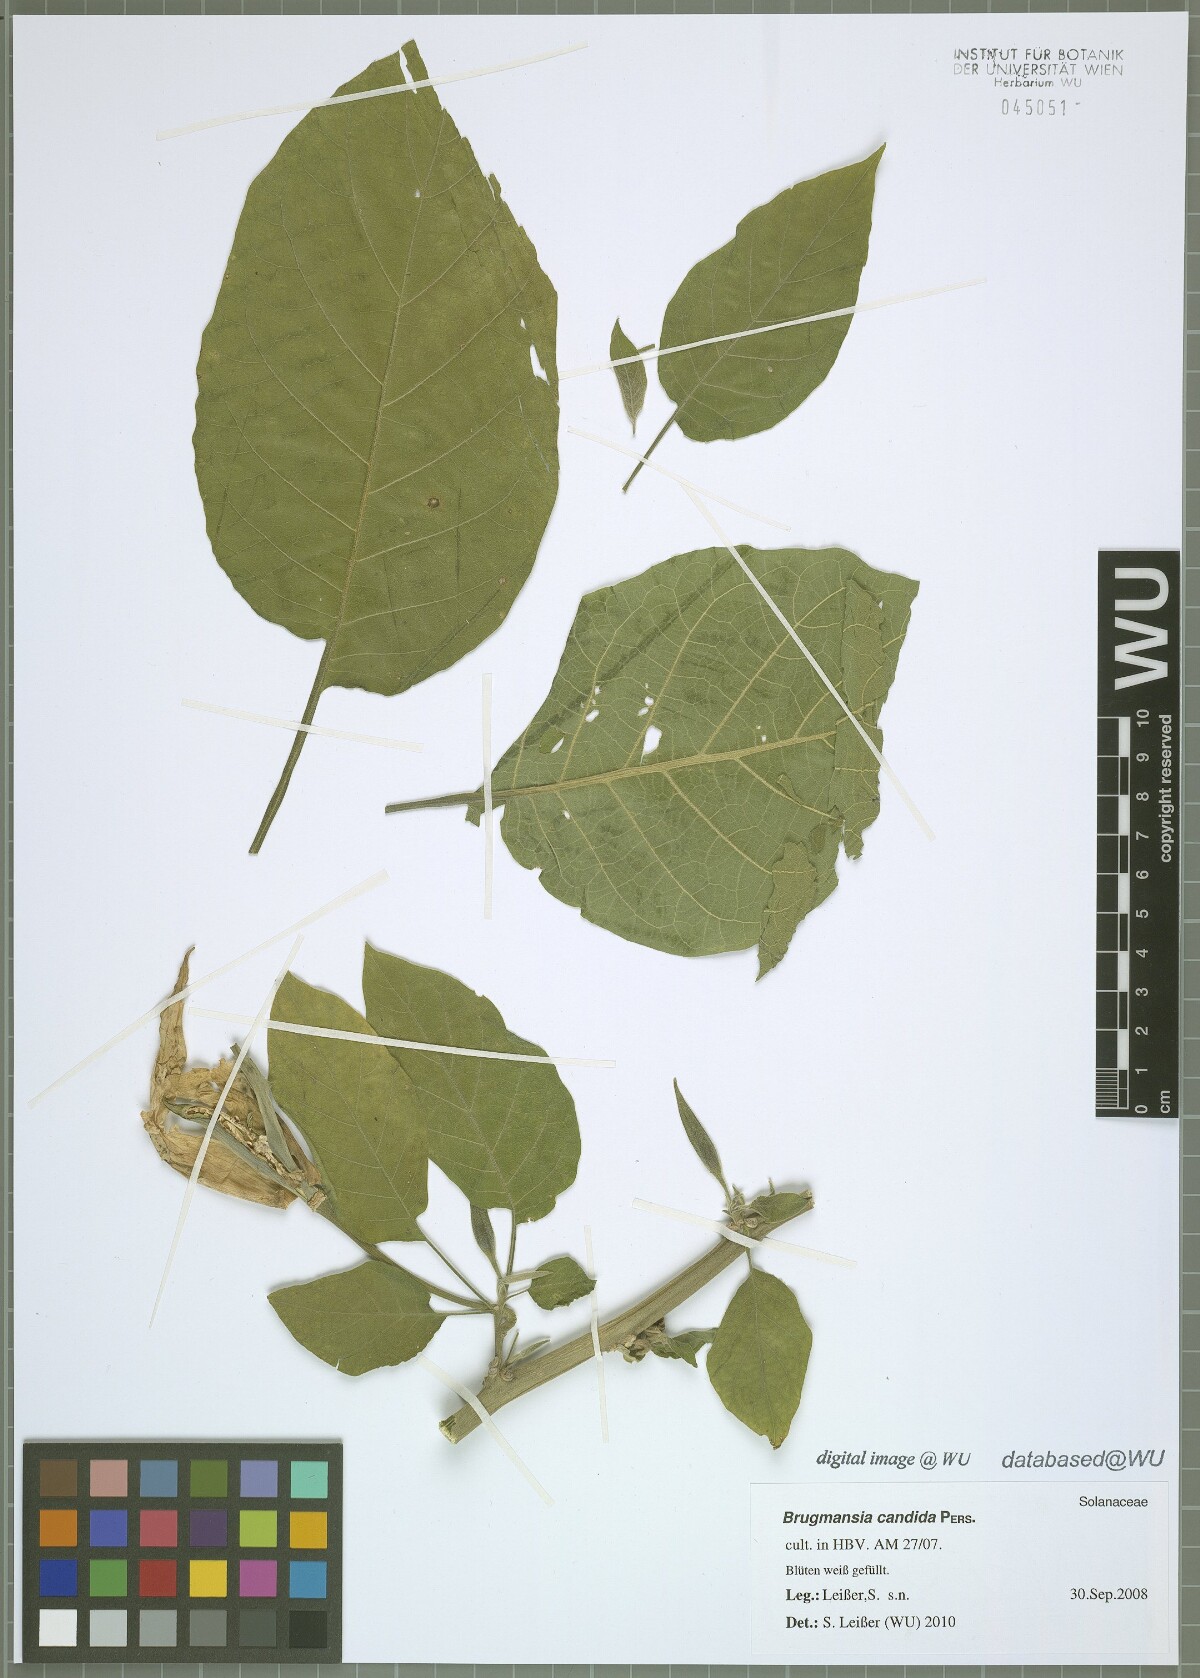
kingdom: Plantae
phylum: Tracheophyta
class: Magnoliopsida
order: Solanales
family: Solanaceae
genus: Brugmansia
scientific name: Brugmansia candida
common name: Angel's-trumpet
